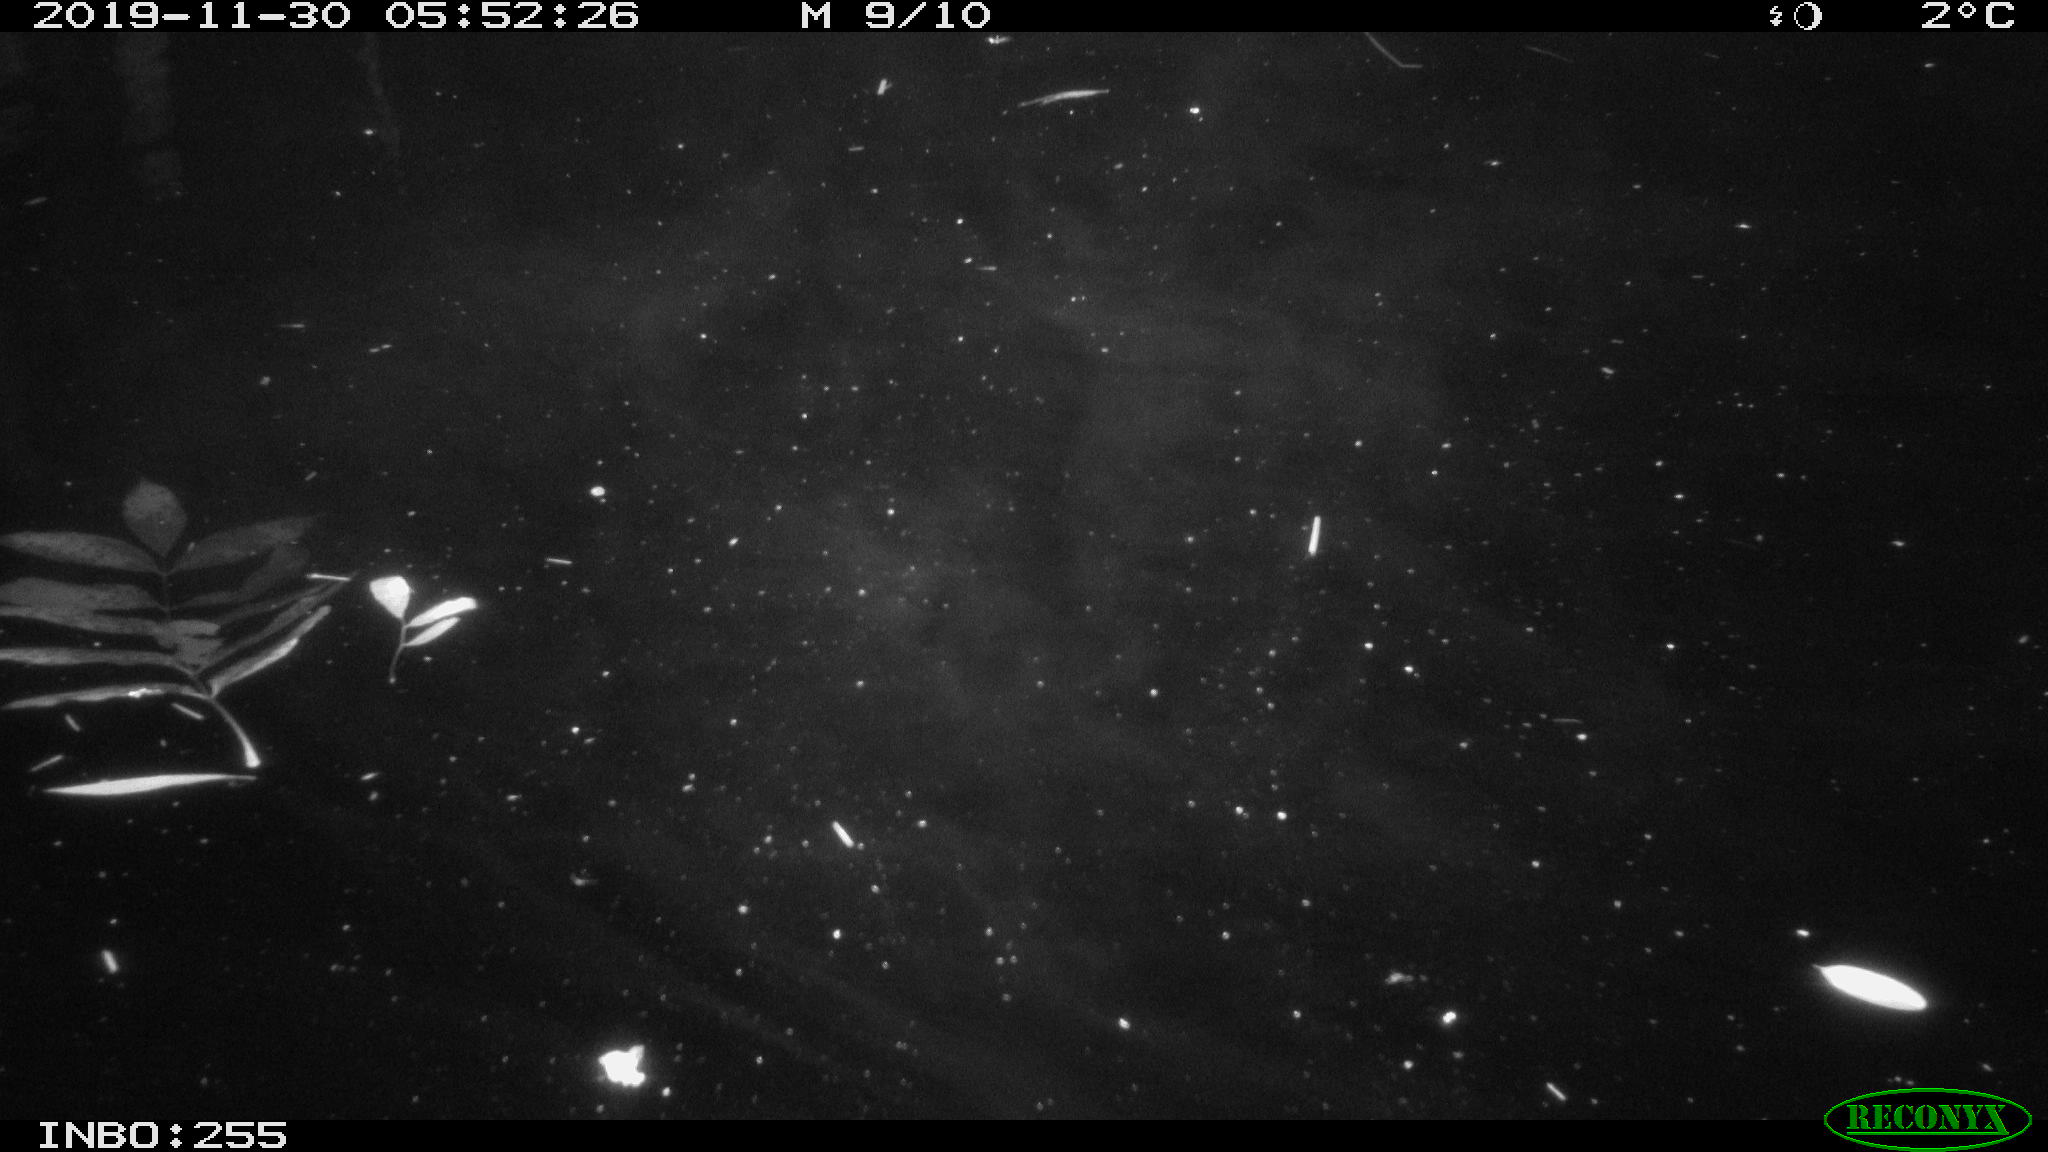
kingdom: Animalia
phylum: Chordata
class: Mammalia
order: Rodentia
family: Cricetidae
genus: Ondatra
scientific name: Ondatra zibethicus
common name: Muskrat
